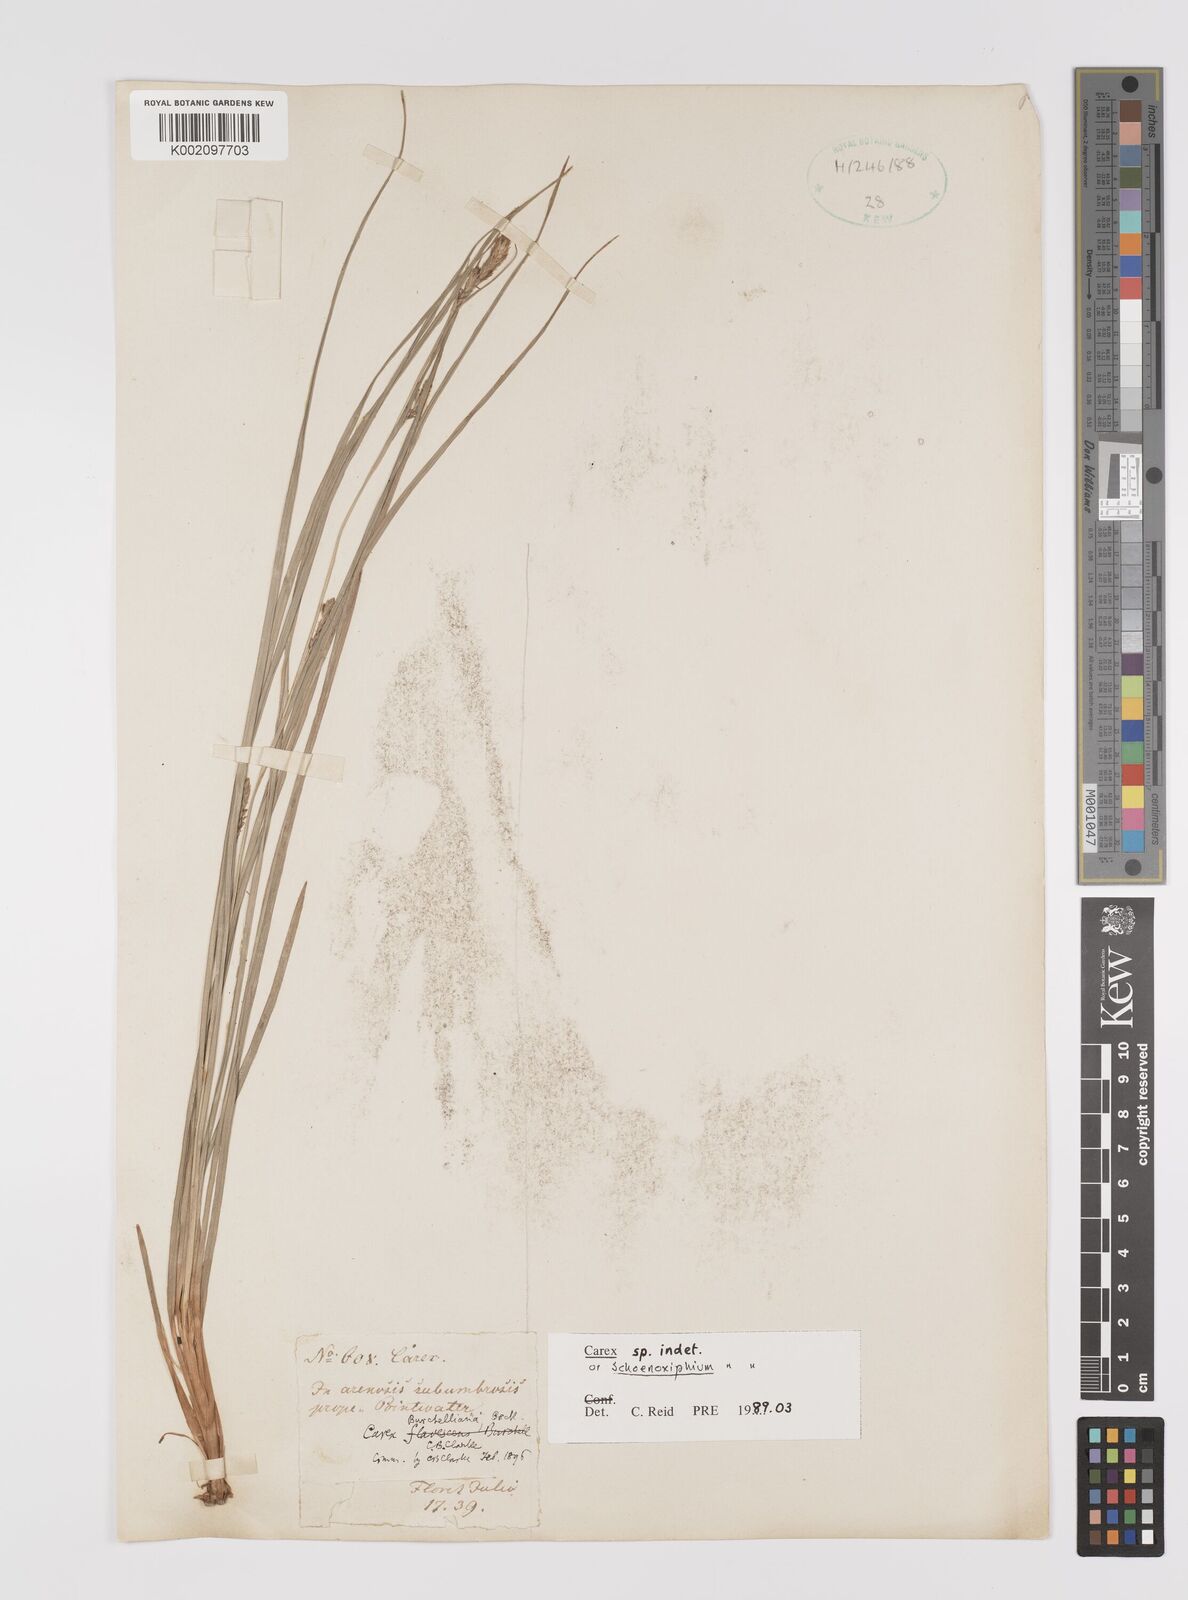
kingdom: Plantae
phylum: Tracheophyta
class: Liliopsida
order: Poales
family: Cyperaceae
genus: Carex
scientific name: Carex
